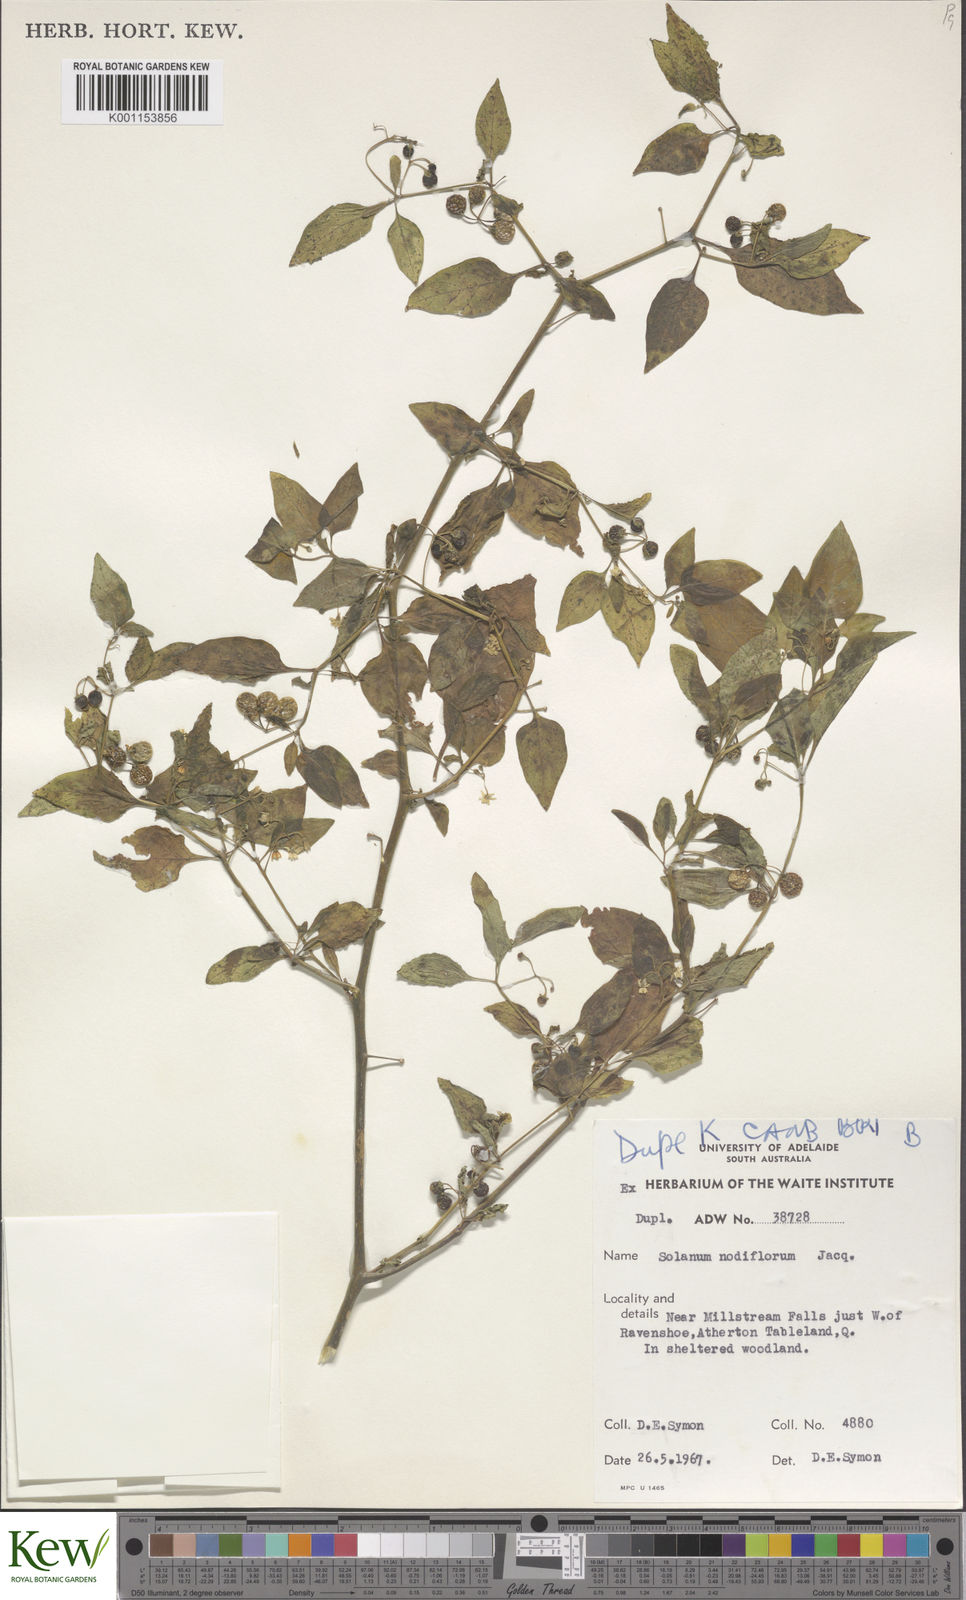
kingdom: Plantae
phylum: Tracheophyta
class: Magnoliopsida
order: Solanales
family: Solanaceae
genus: Solanum
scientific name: Solanum americanum
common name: American black nightshade
